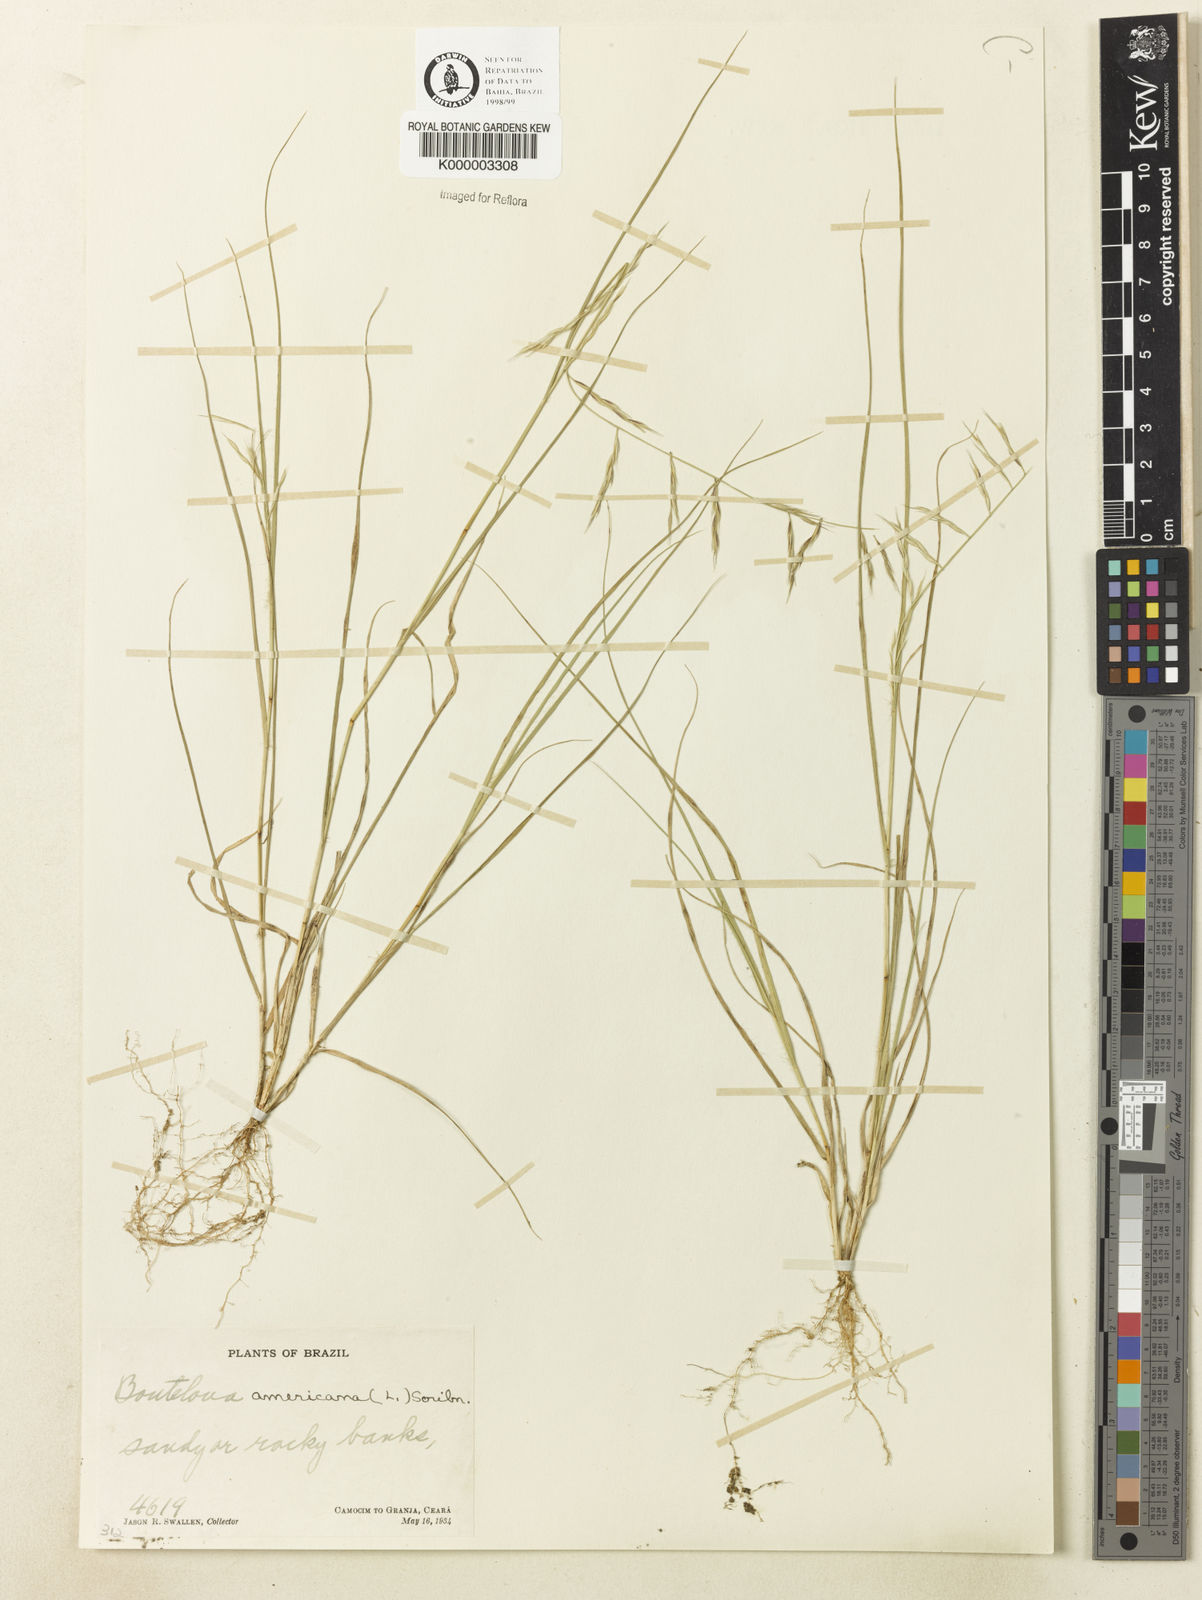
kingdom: Plantae
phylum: Tracheophyta
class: Liliopsida
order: Poales
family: Poaceae
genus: Bouteloua
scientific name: Bouteloua americana
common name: Mule grass
